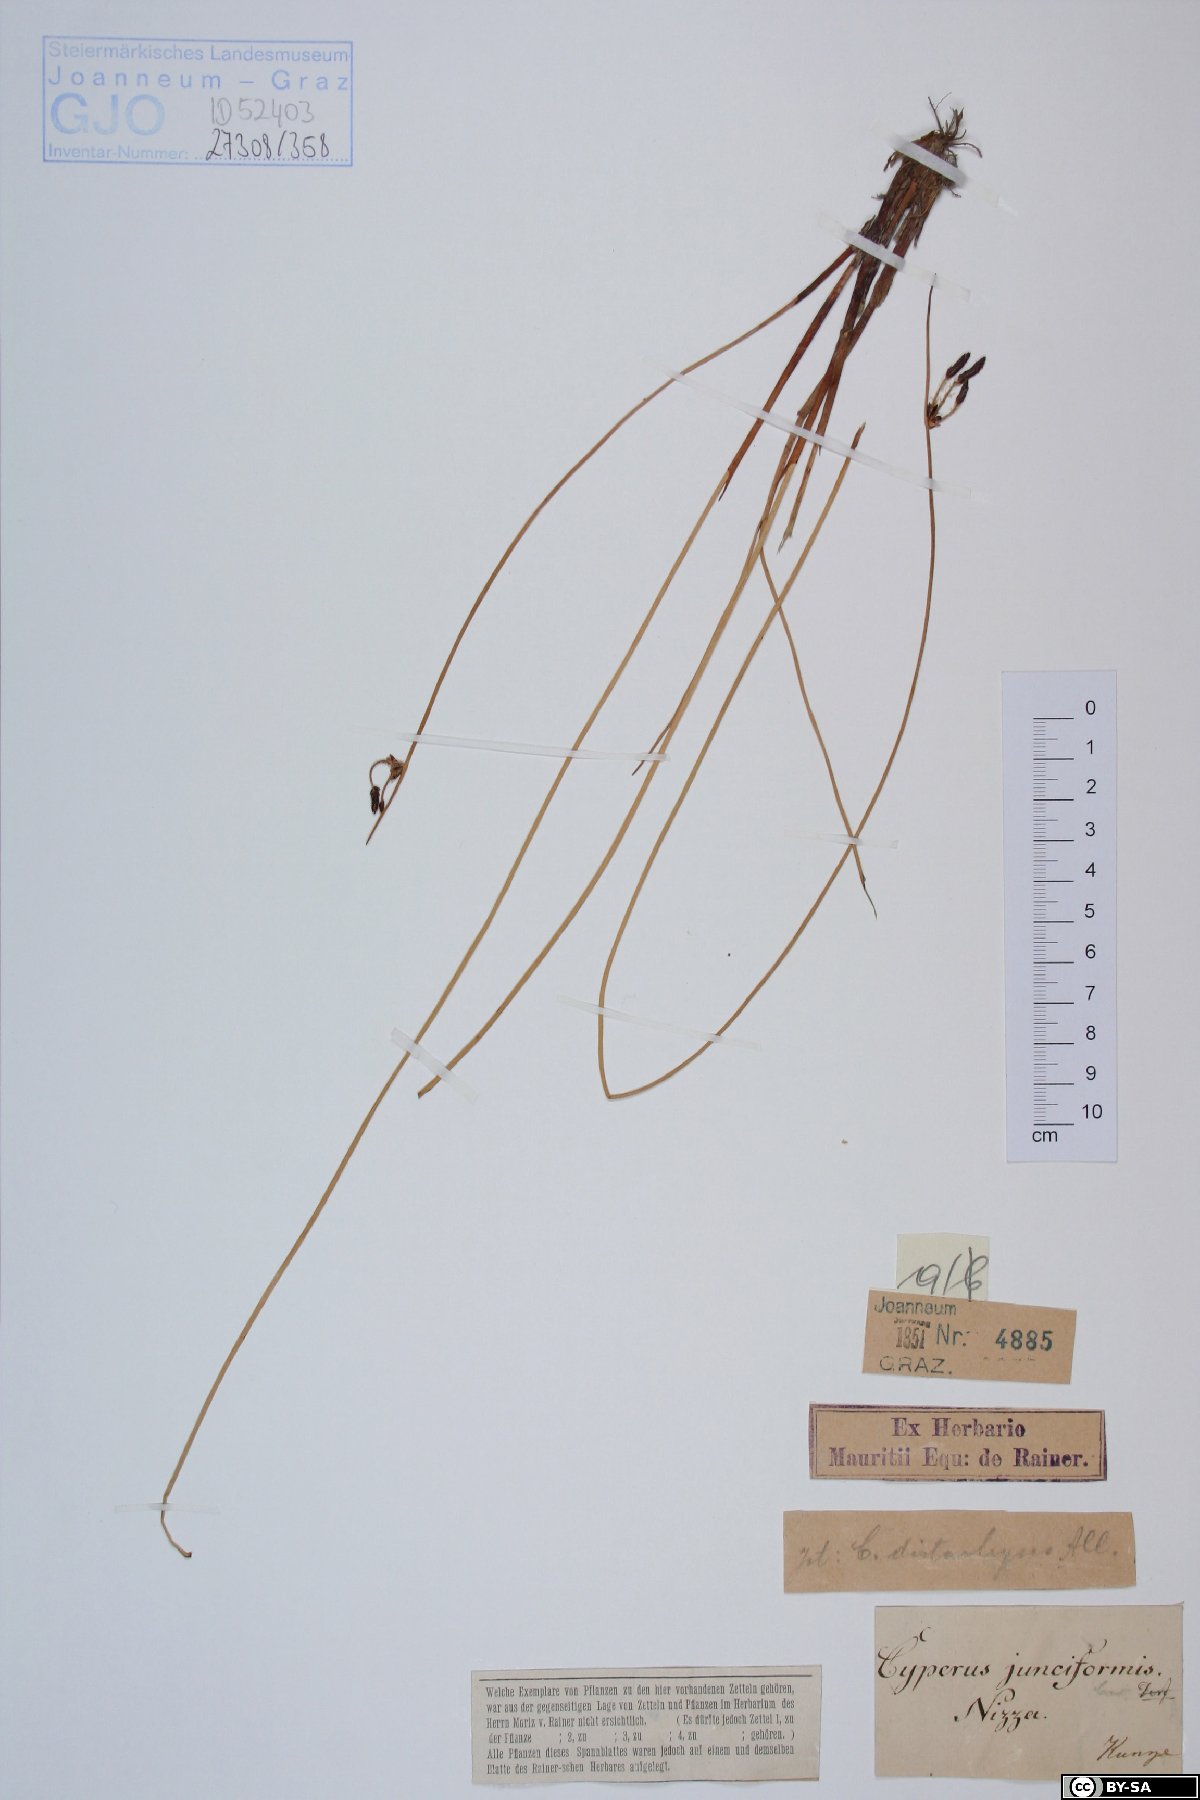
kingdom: Plantae
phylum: Tracheophyta
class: Liliopsida
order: Poales
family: Cyperaceae
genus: Cyperus
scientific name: Cyperus laevigatus
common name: Smooth flat sedge
